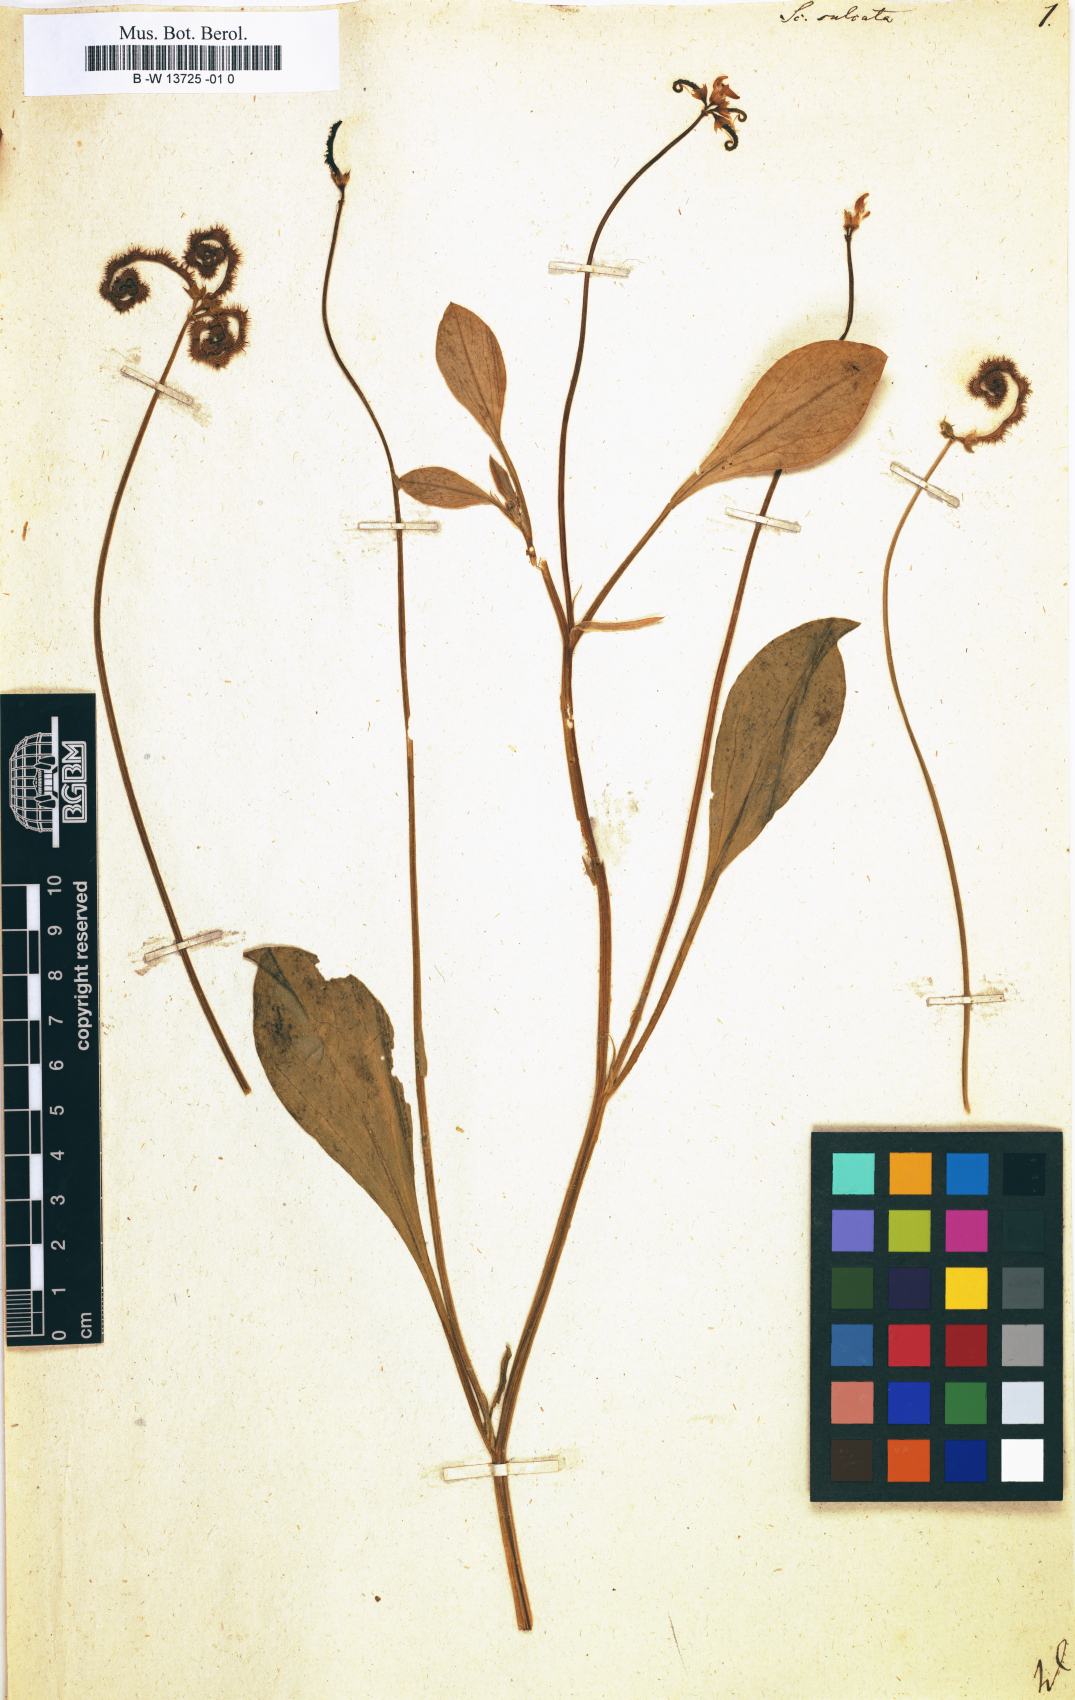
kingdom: Plantae
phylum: Tracheophyta
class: Magnoliopsida
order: Fabales
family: Fabaceae
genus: Scorpiurus
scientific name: Scorpiurus muricatus
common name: Caterpillar-plant
